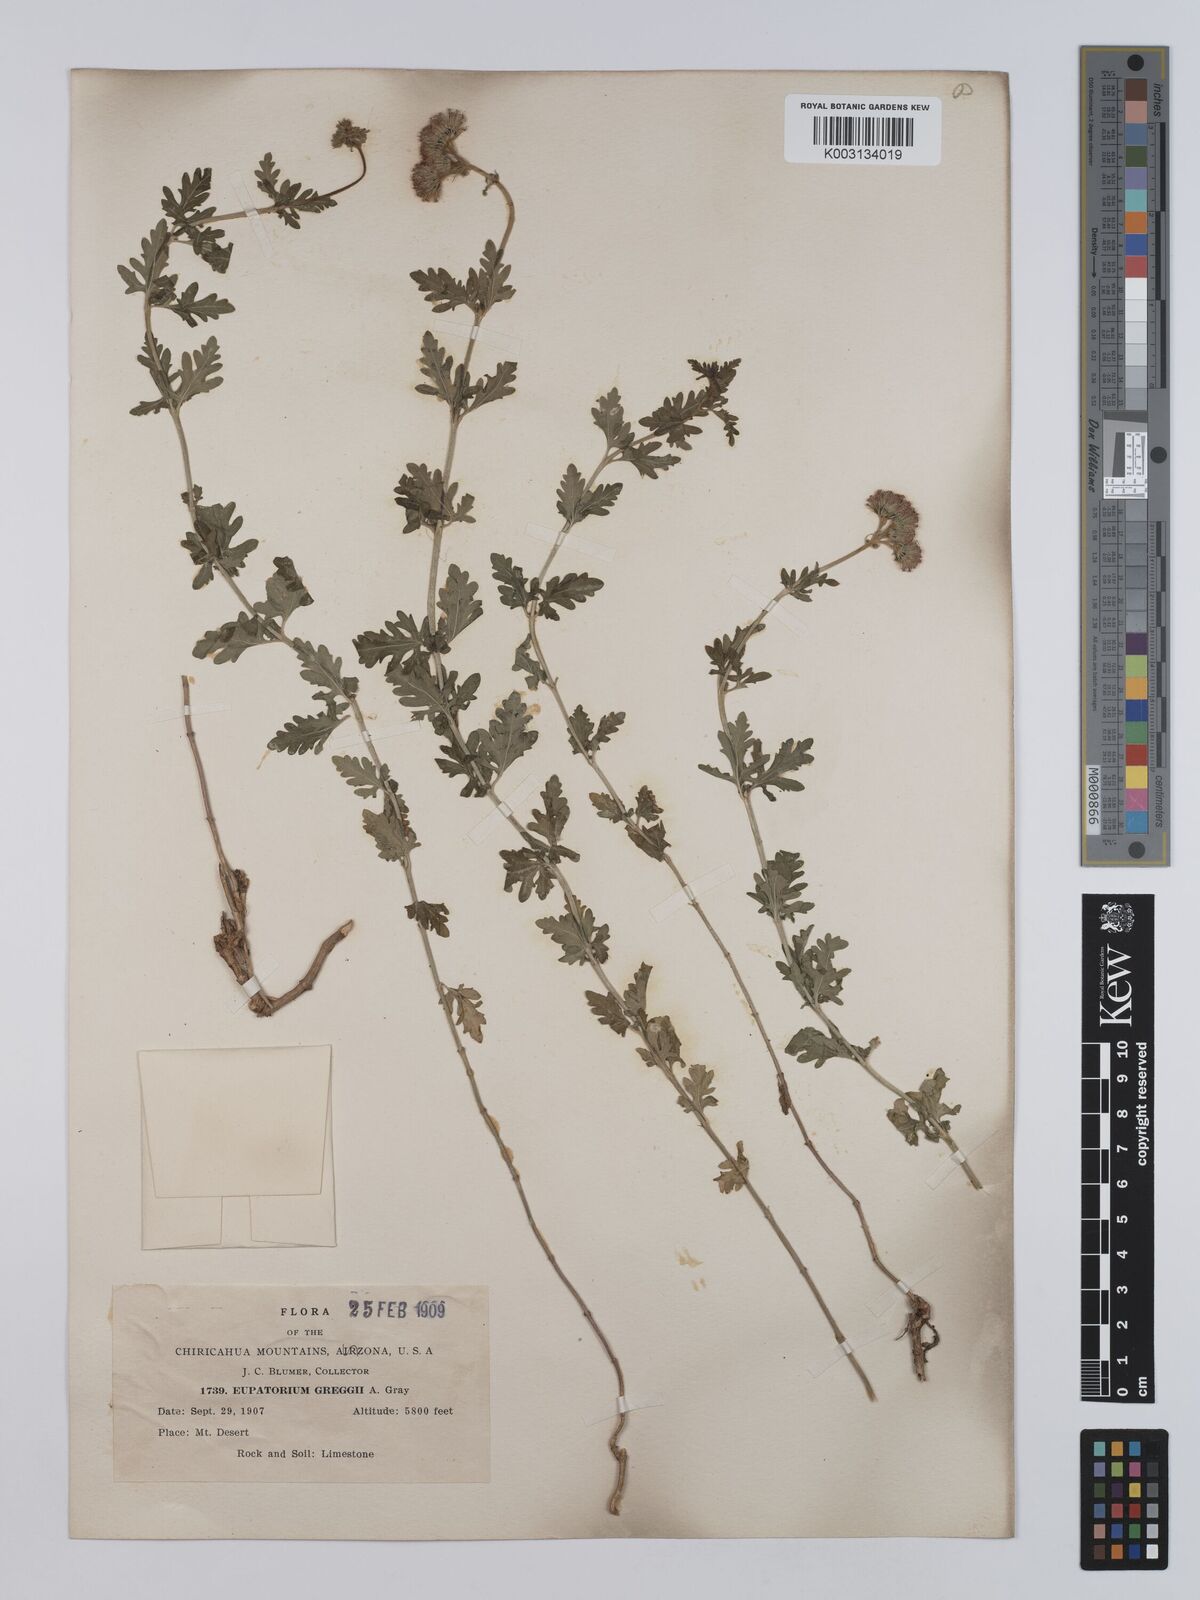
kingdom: Plantae
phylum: Tracheophyta
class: Magnoliopsida
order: Asterales
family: Asteraceae
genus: Conoclinium
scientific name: Conoclinium dissectum
